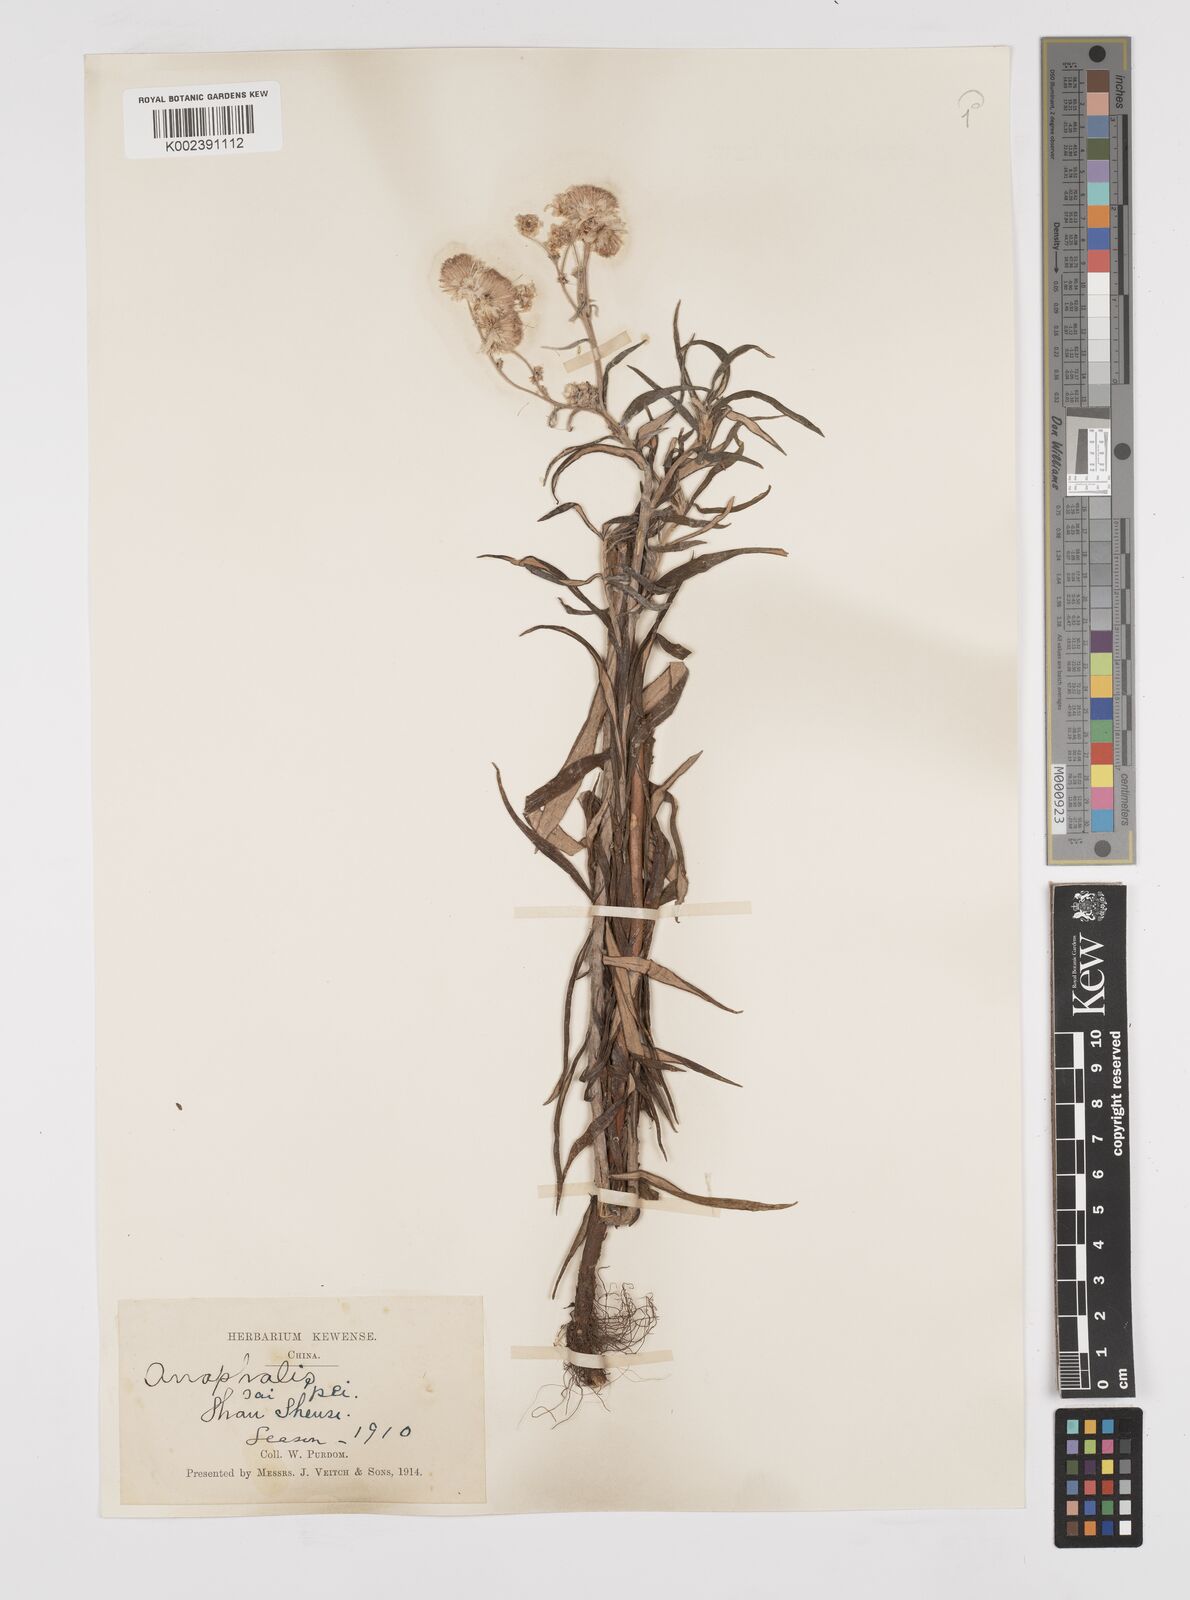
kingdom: Plantae
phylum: Tracheophyta
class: Magnoliopsida
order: Asterales
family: Asteraceae
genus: Anaphalis
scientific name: Anaphalis margaritacea
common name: Pearly everlasting
